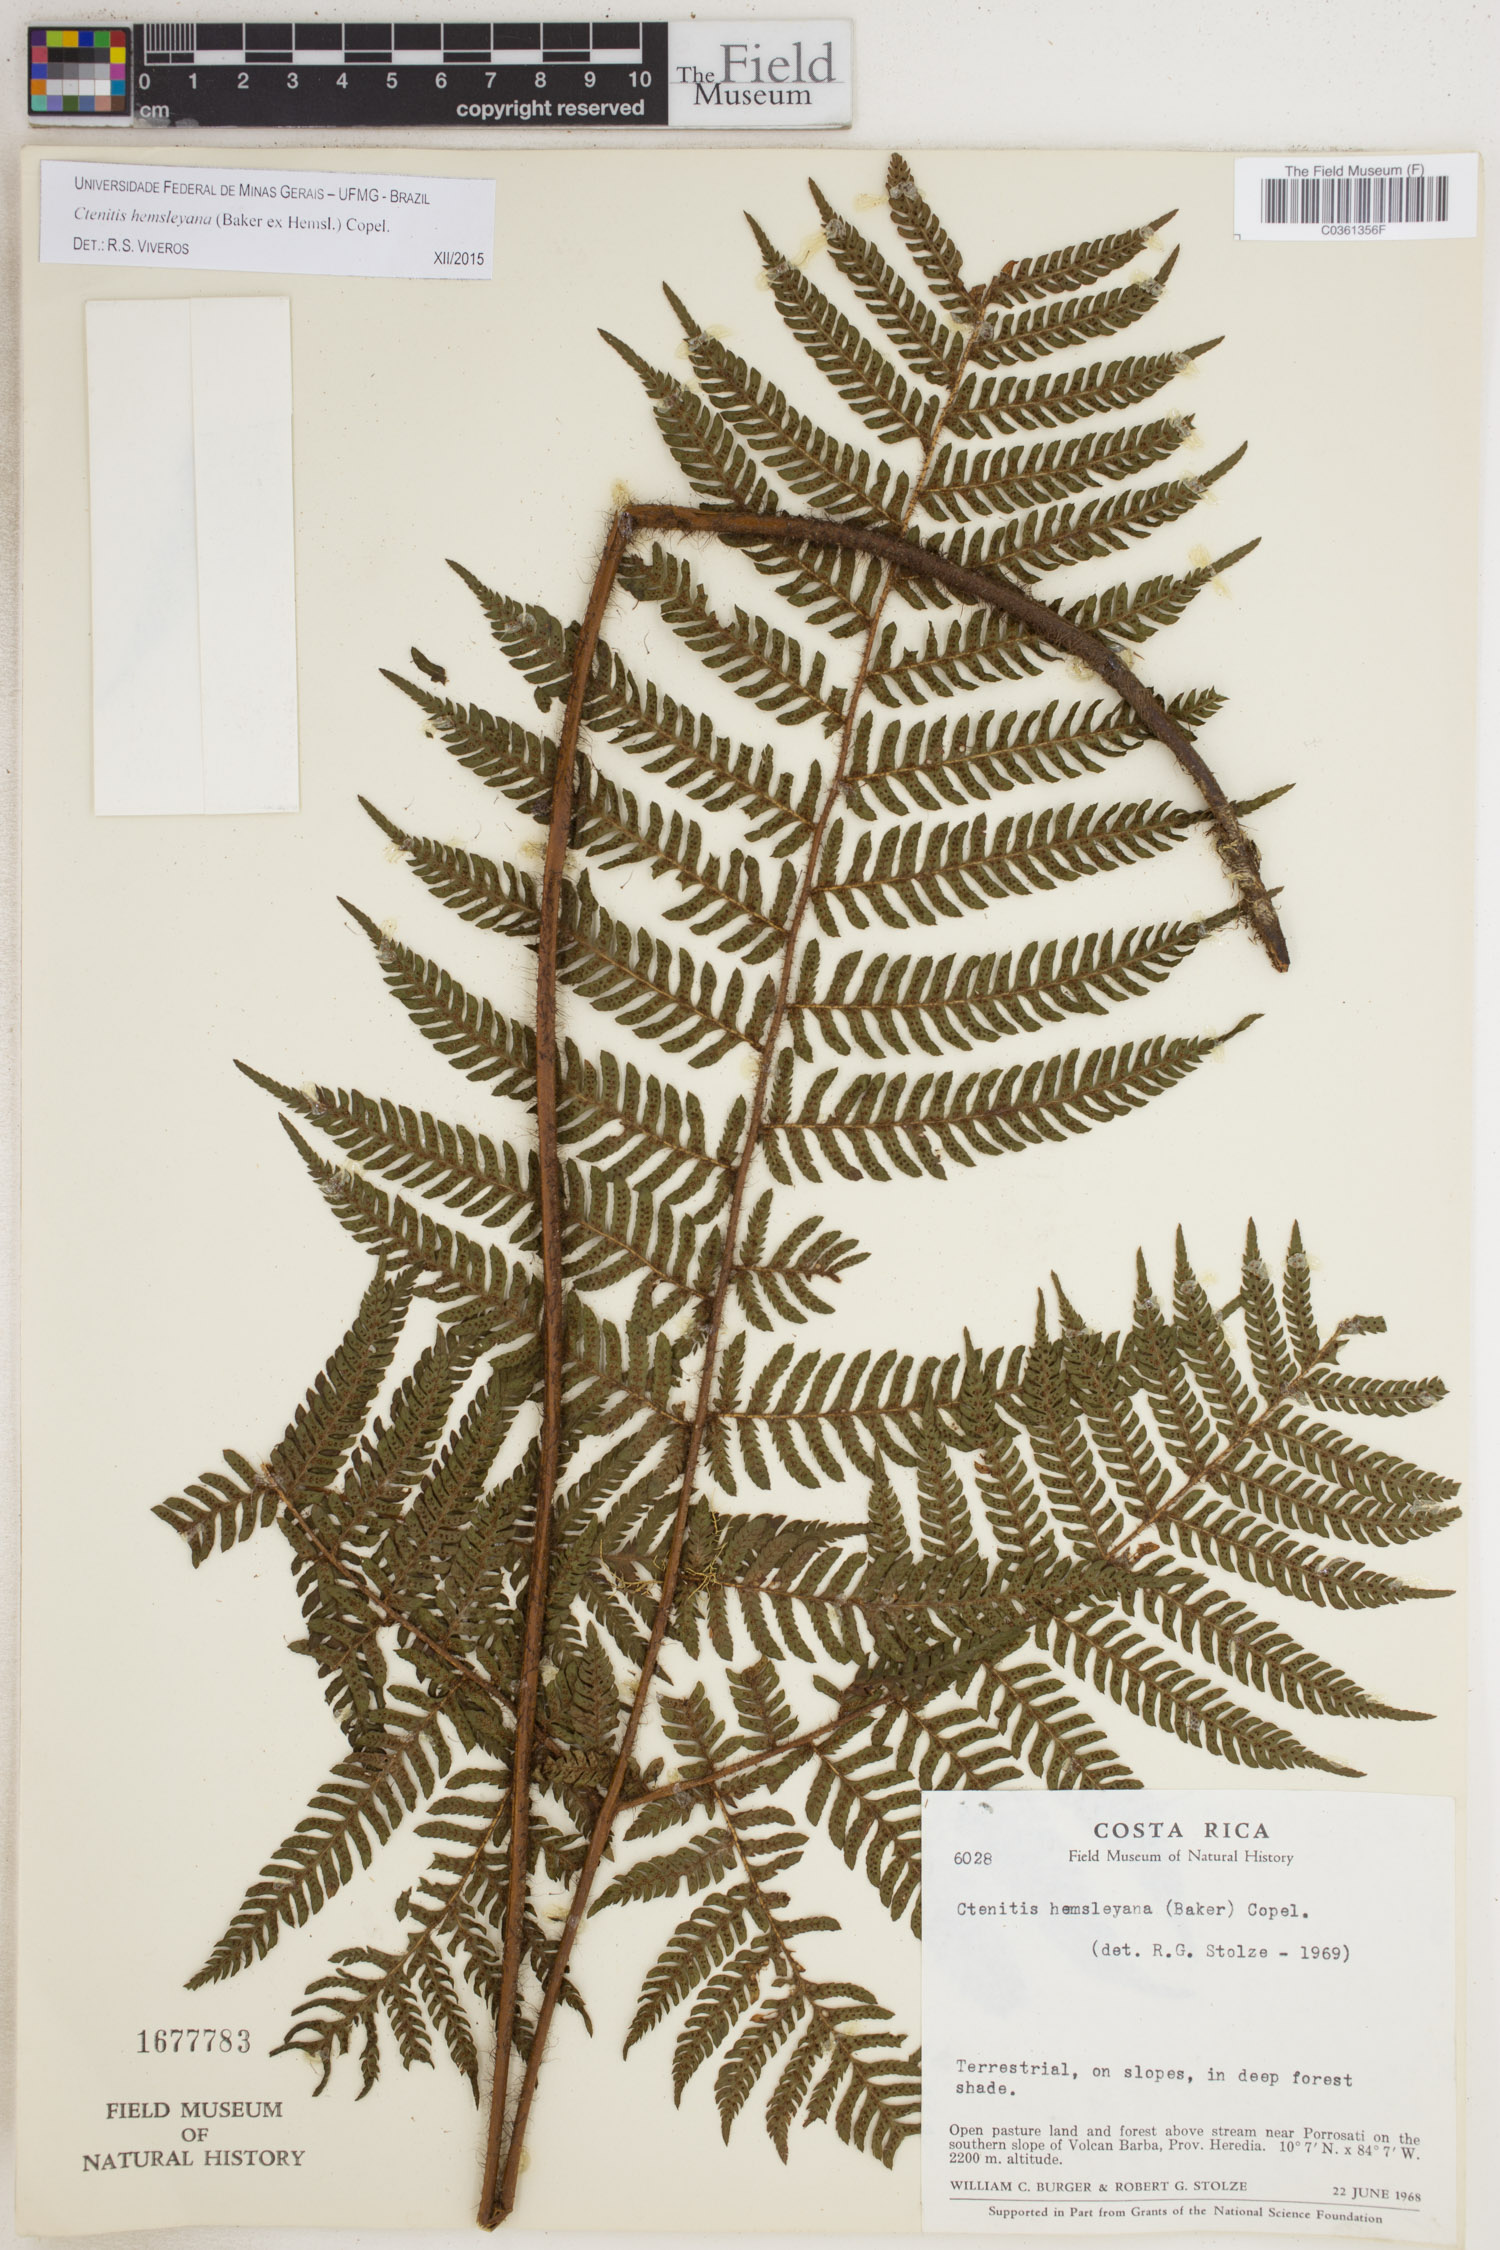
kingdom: Plantae
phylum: Tracheophyta
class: Polypodiopsida
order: Polypodiales
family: Dryopteridaceae
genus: Ctenitis
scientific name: Ctenitis hemsleyana
